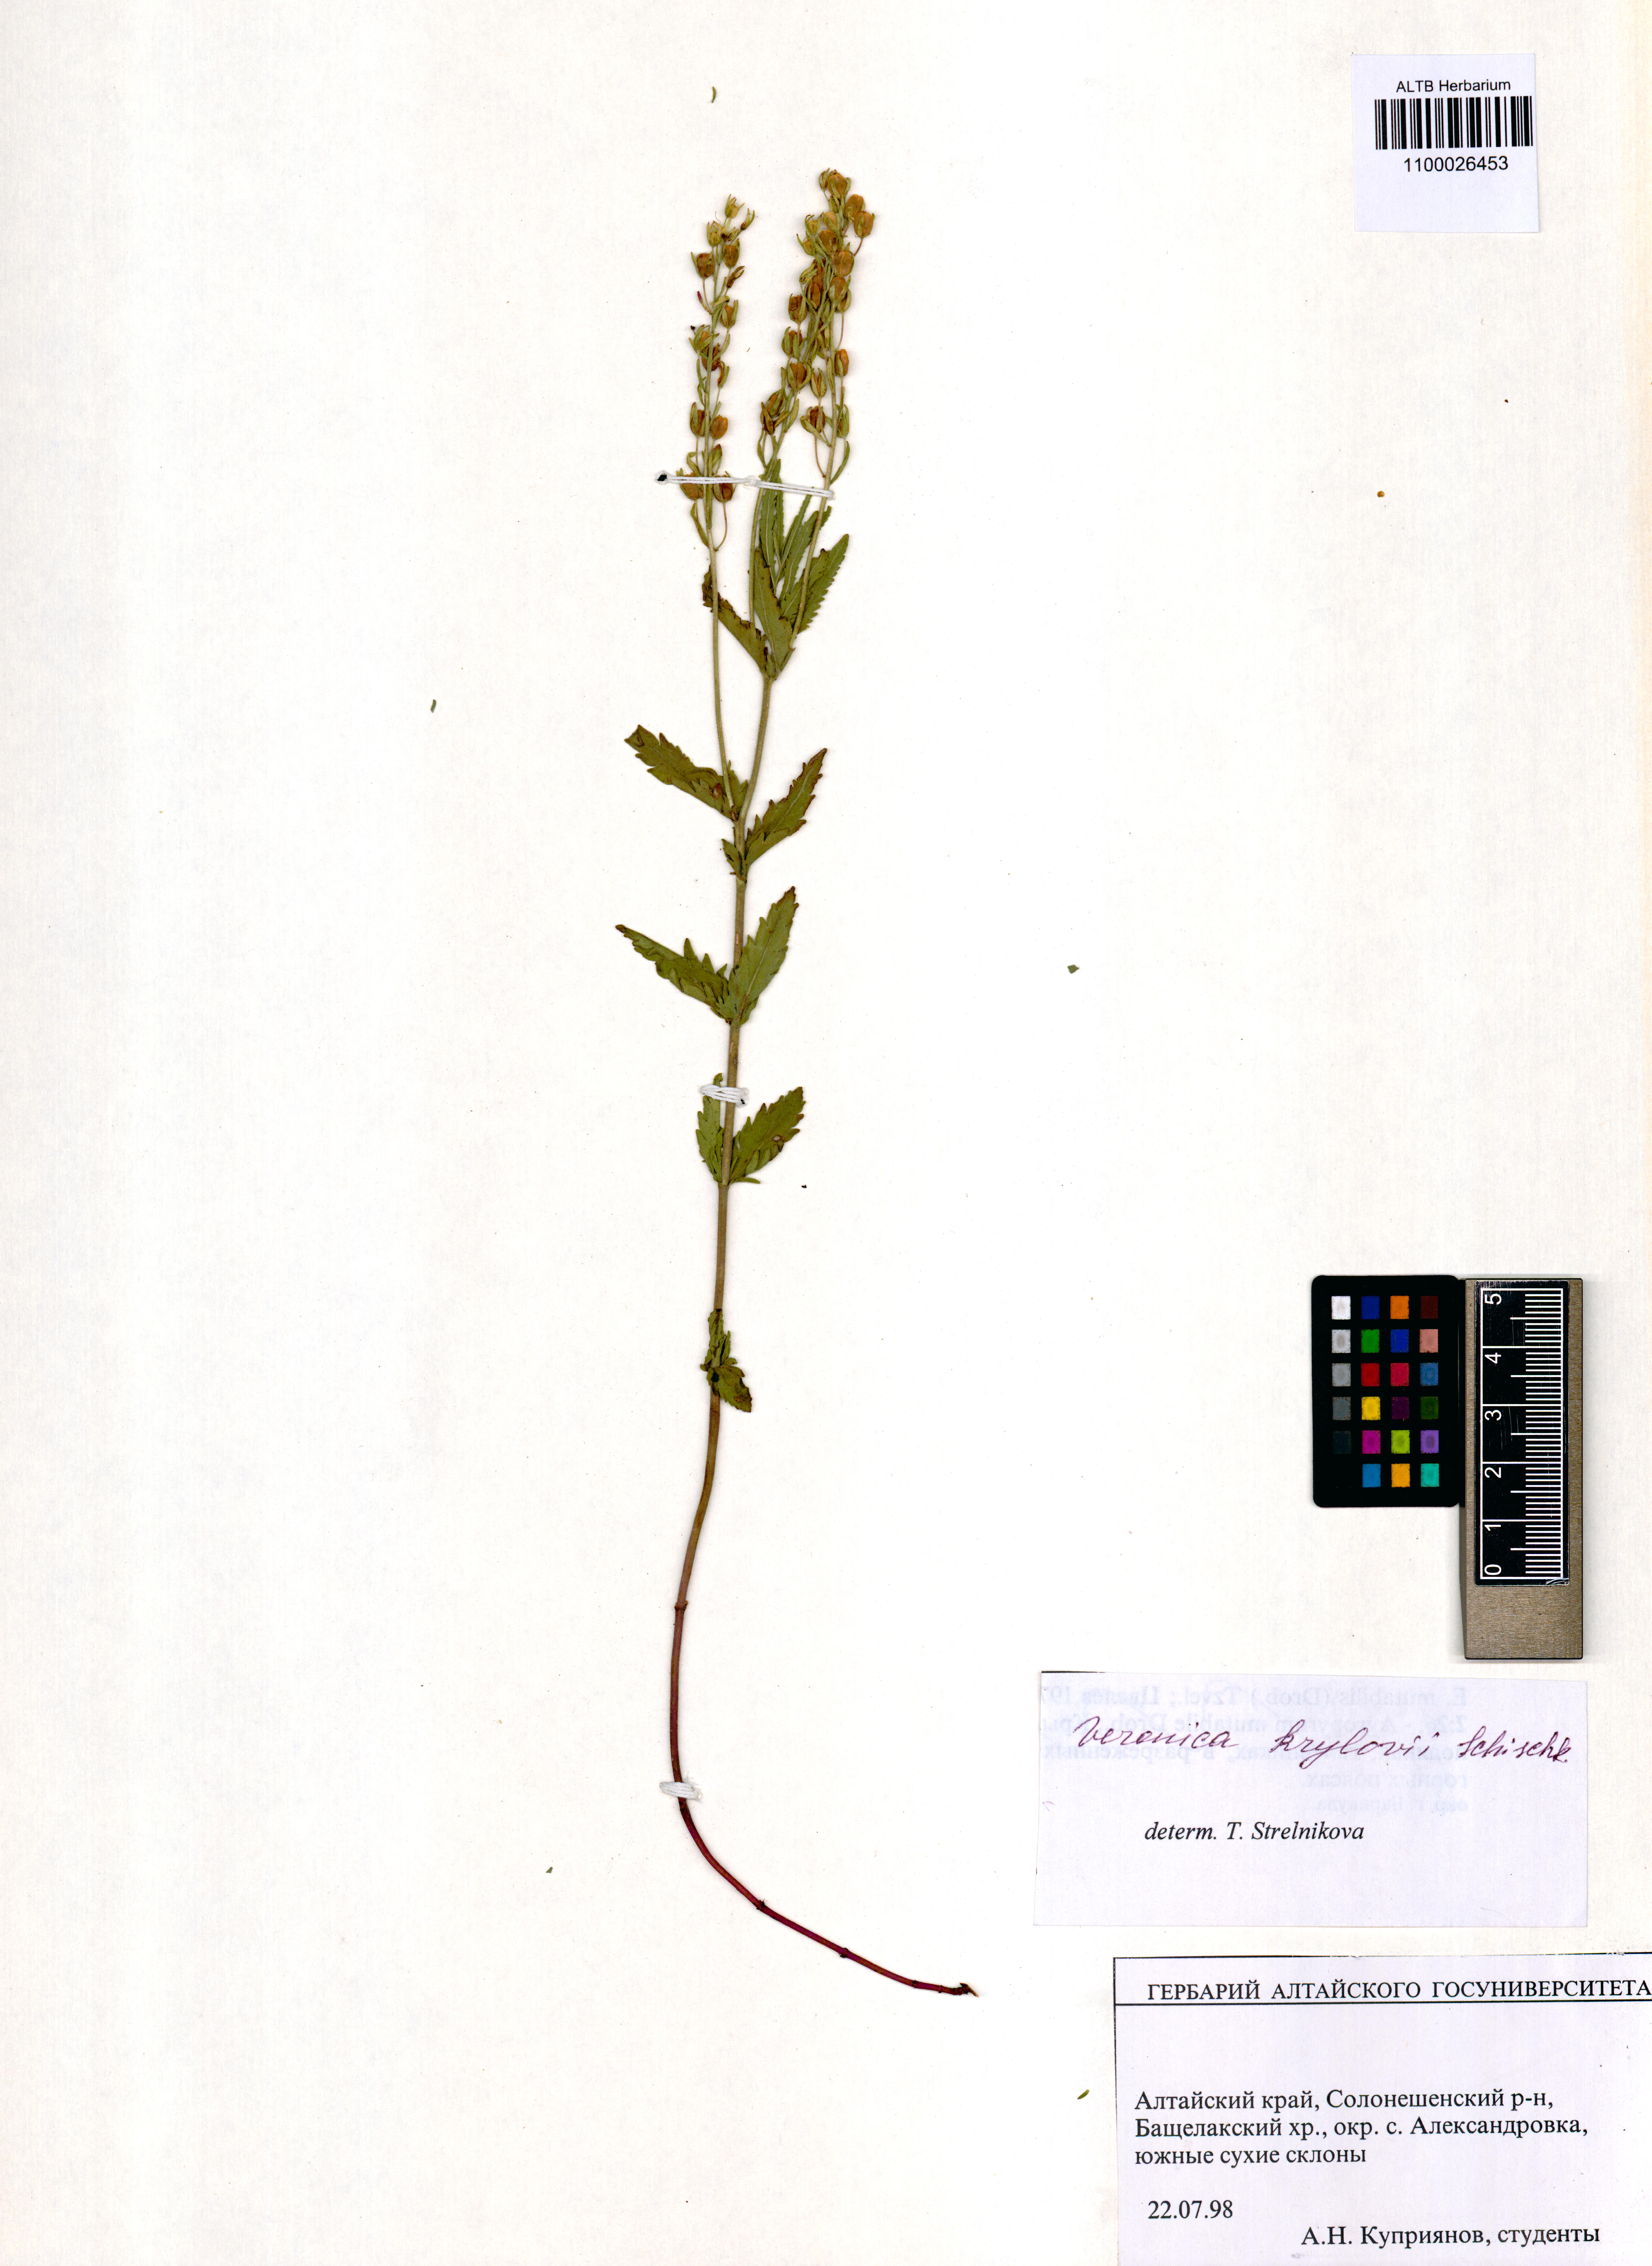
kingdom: Plantae
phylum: Tracheophyta
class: Magnoliopsida
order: Lamiales
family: Plantaginaceae
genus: Veronica
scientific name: Veronica krylovii
